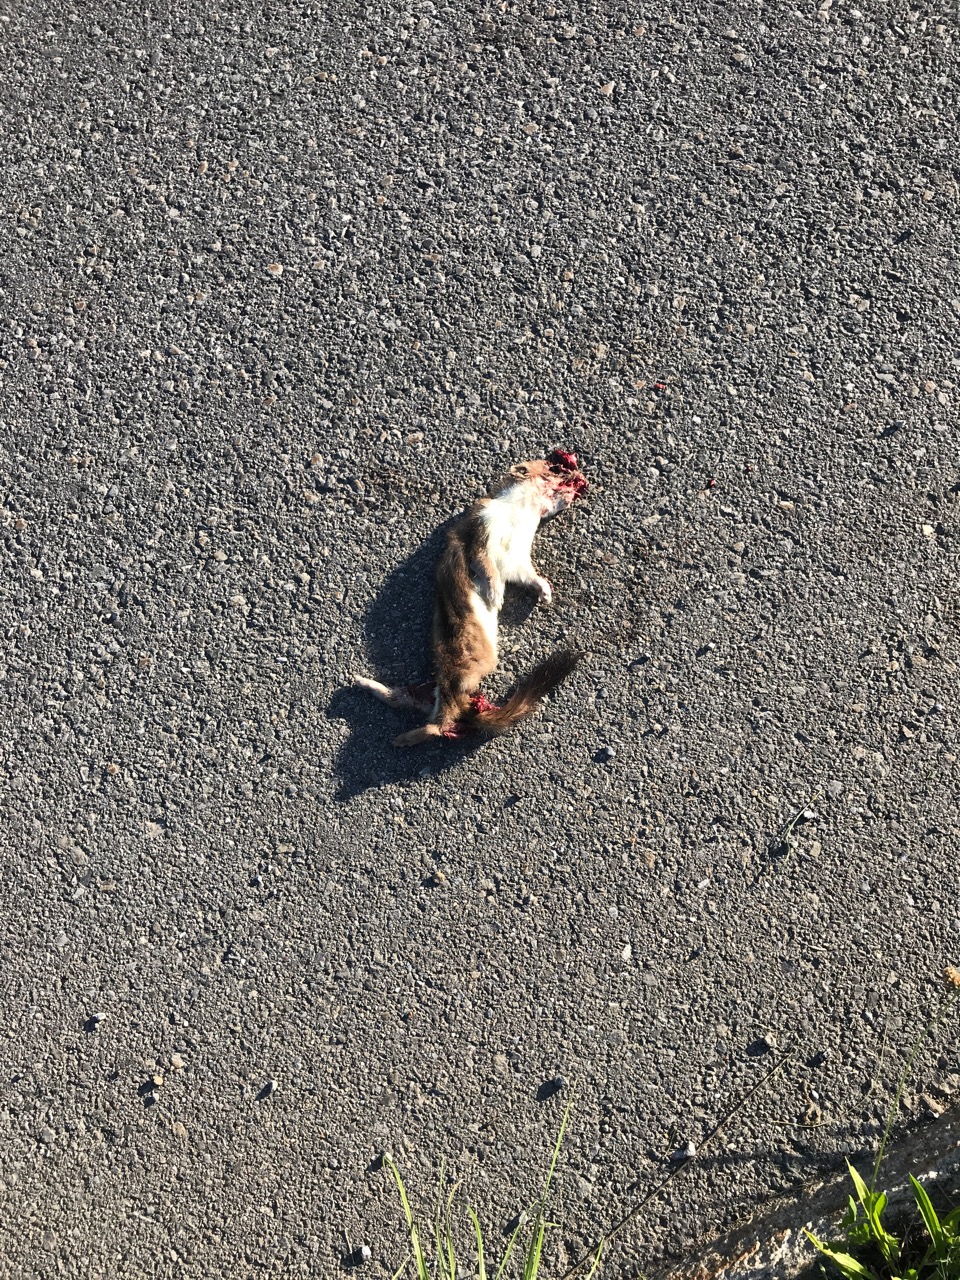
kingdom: Animalia
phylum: Chordata
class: Mammalia
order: Carnivora
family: Mustelidae
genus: Mustela
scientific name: Mustela erminea
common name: Stoat
